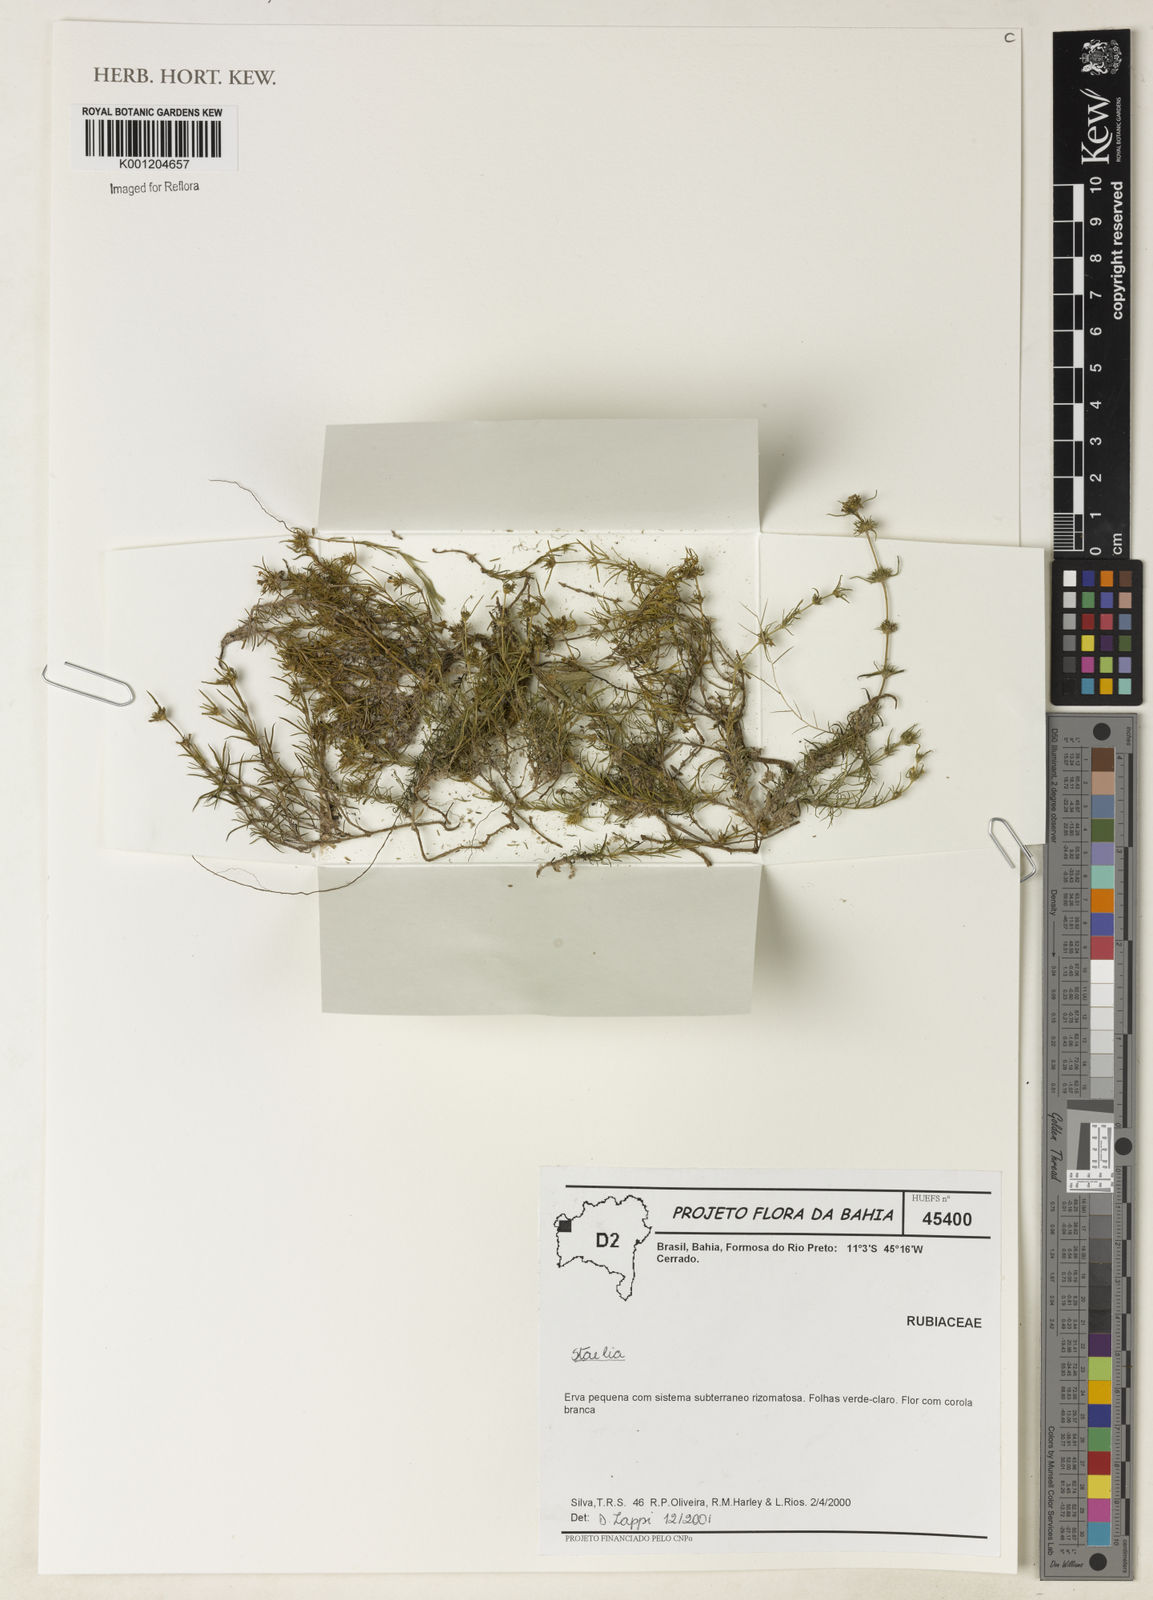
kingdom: Plantae
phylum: Tracheophyta
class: Magnoliopsida
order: Gentianales
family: Rubiaceae
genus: Staelia
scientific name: Staelia
